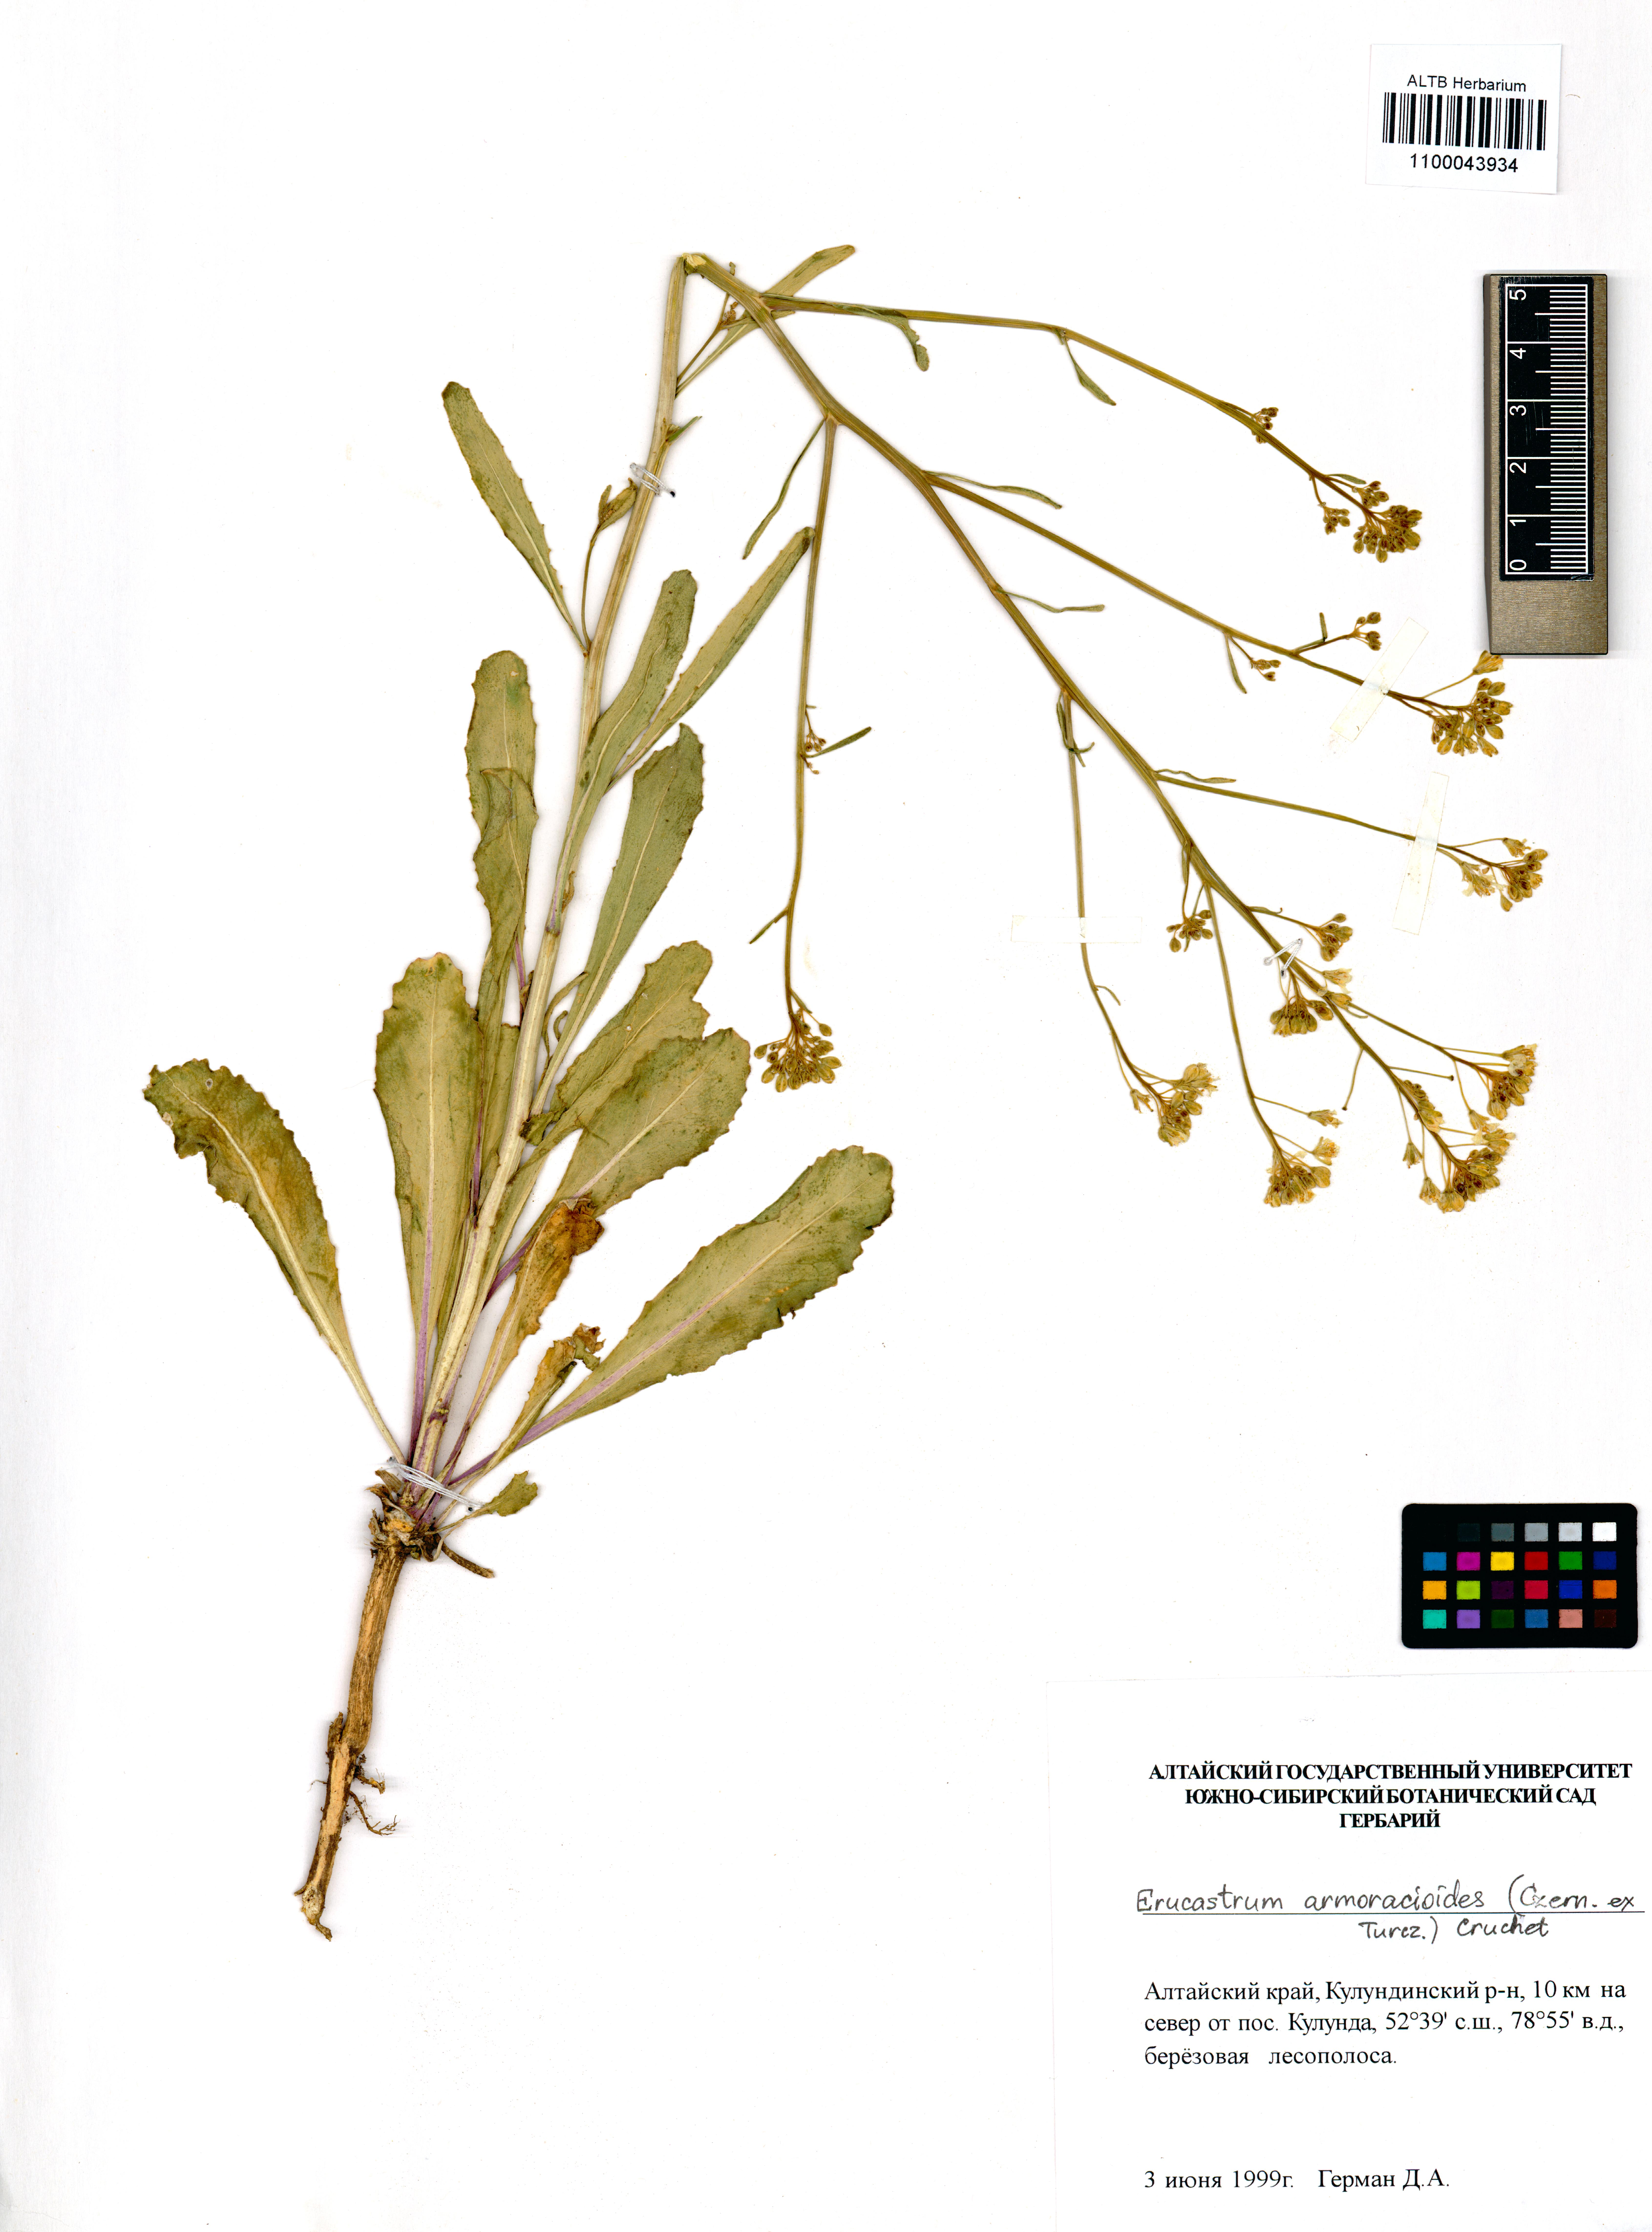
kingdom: Plantae
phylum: Tracheophyta
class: Magnoliopsida
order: Brassicales
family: Brassicaceae
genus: Brassica
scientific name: Brassica elongata
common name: Long-stalked rape
